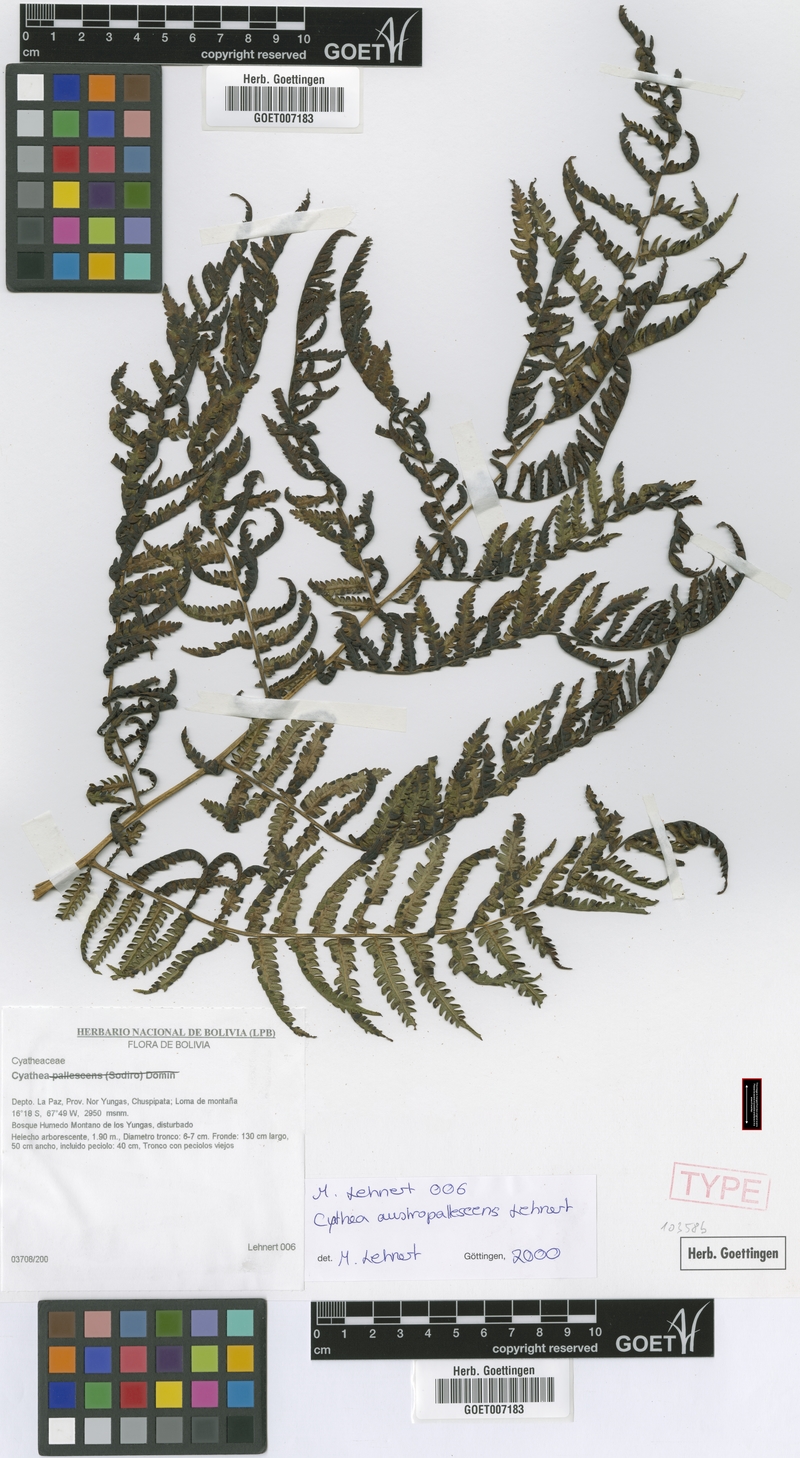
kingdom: Plantae
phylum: Tracheophyta
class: Polypodiopsida
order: Cyatheales
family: Cyatheaceae
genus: Cyathea
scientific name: Cyathea austropallescens
